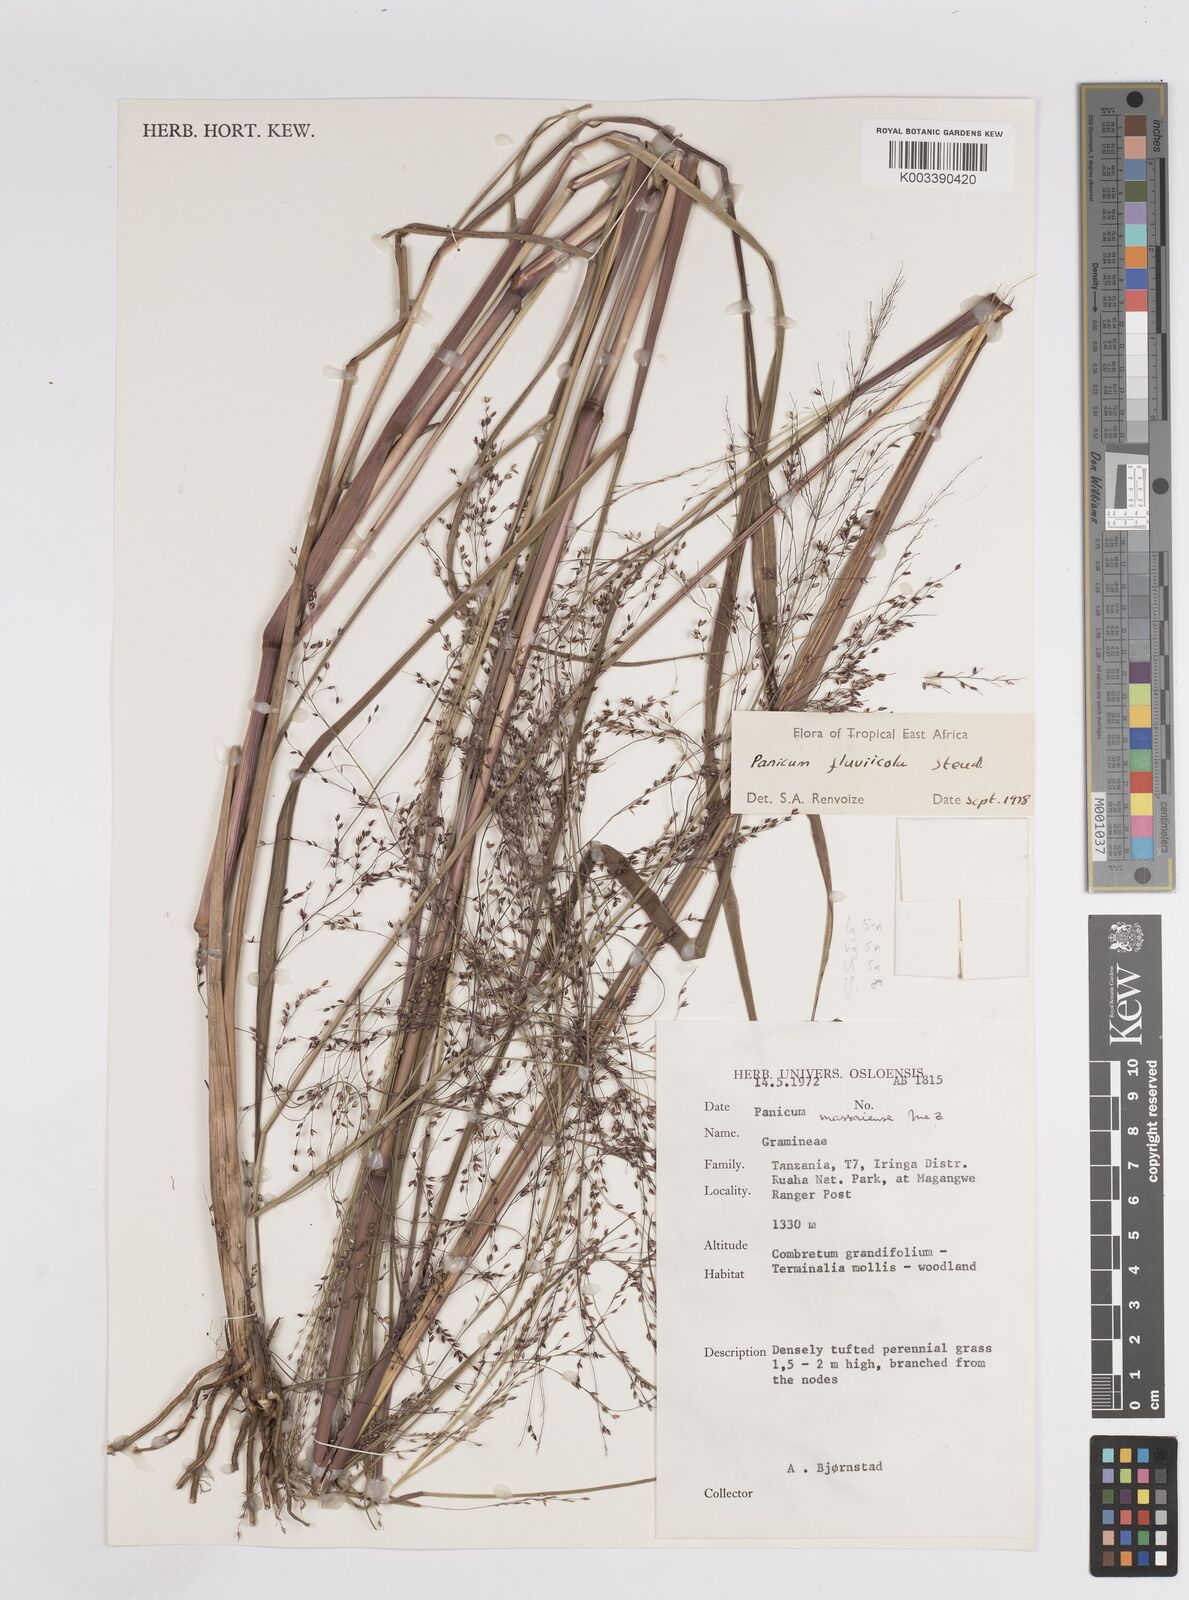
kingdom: Plantae
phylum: Tracheophyta
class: Liliopsida
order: Poales
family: Poaceae
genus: Panicum
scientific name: Panicum fluviicola
